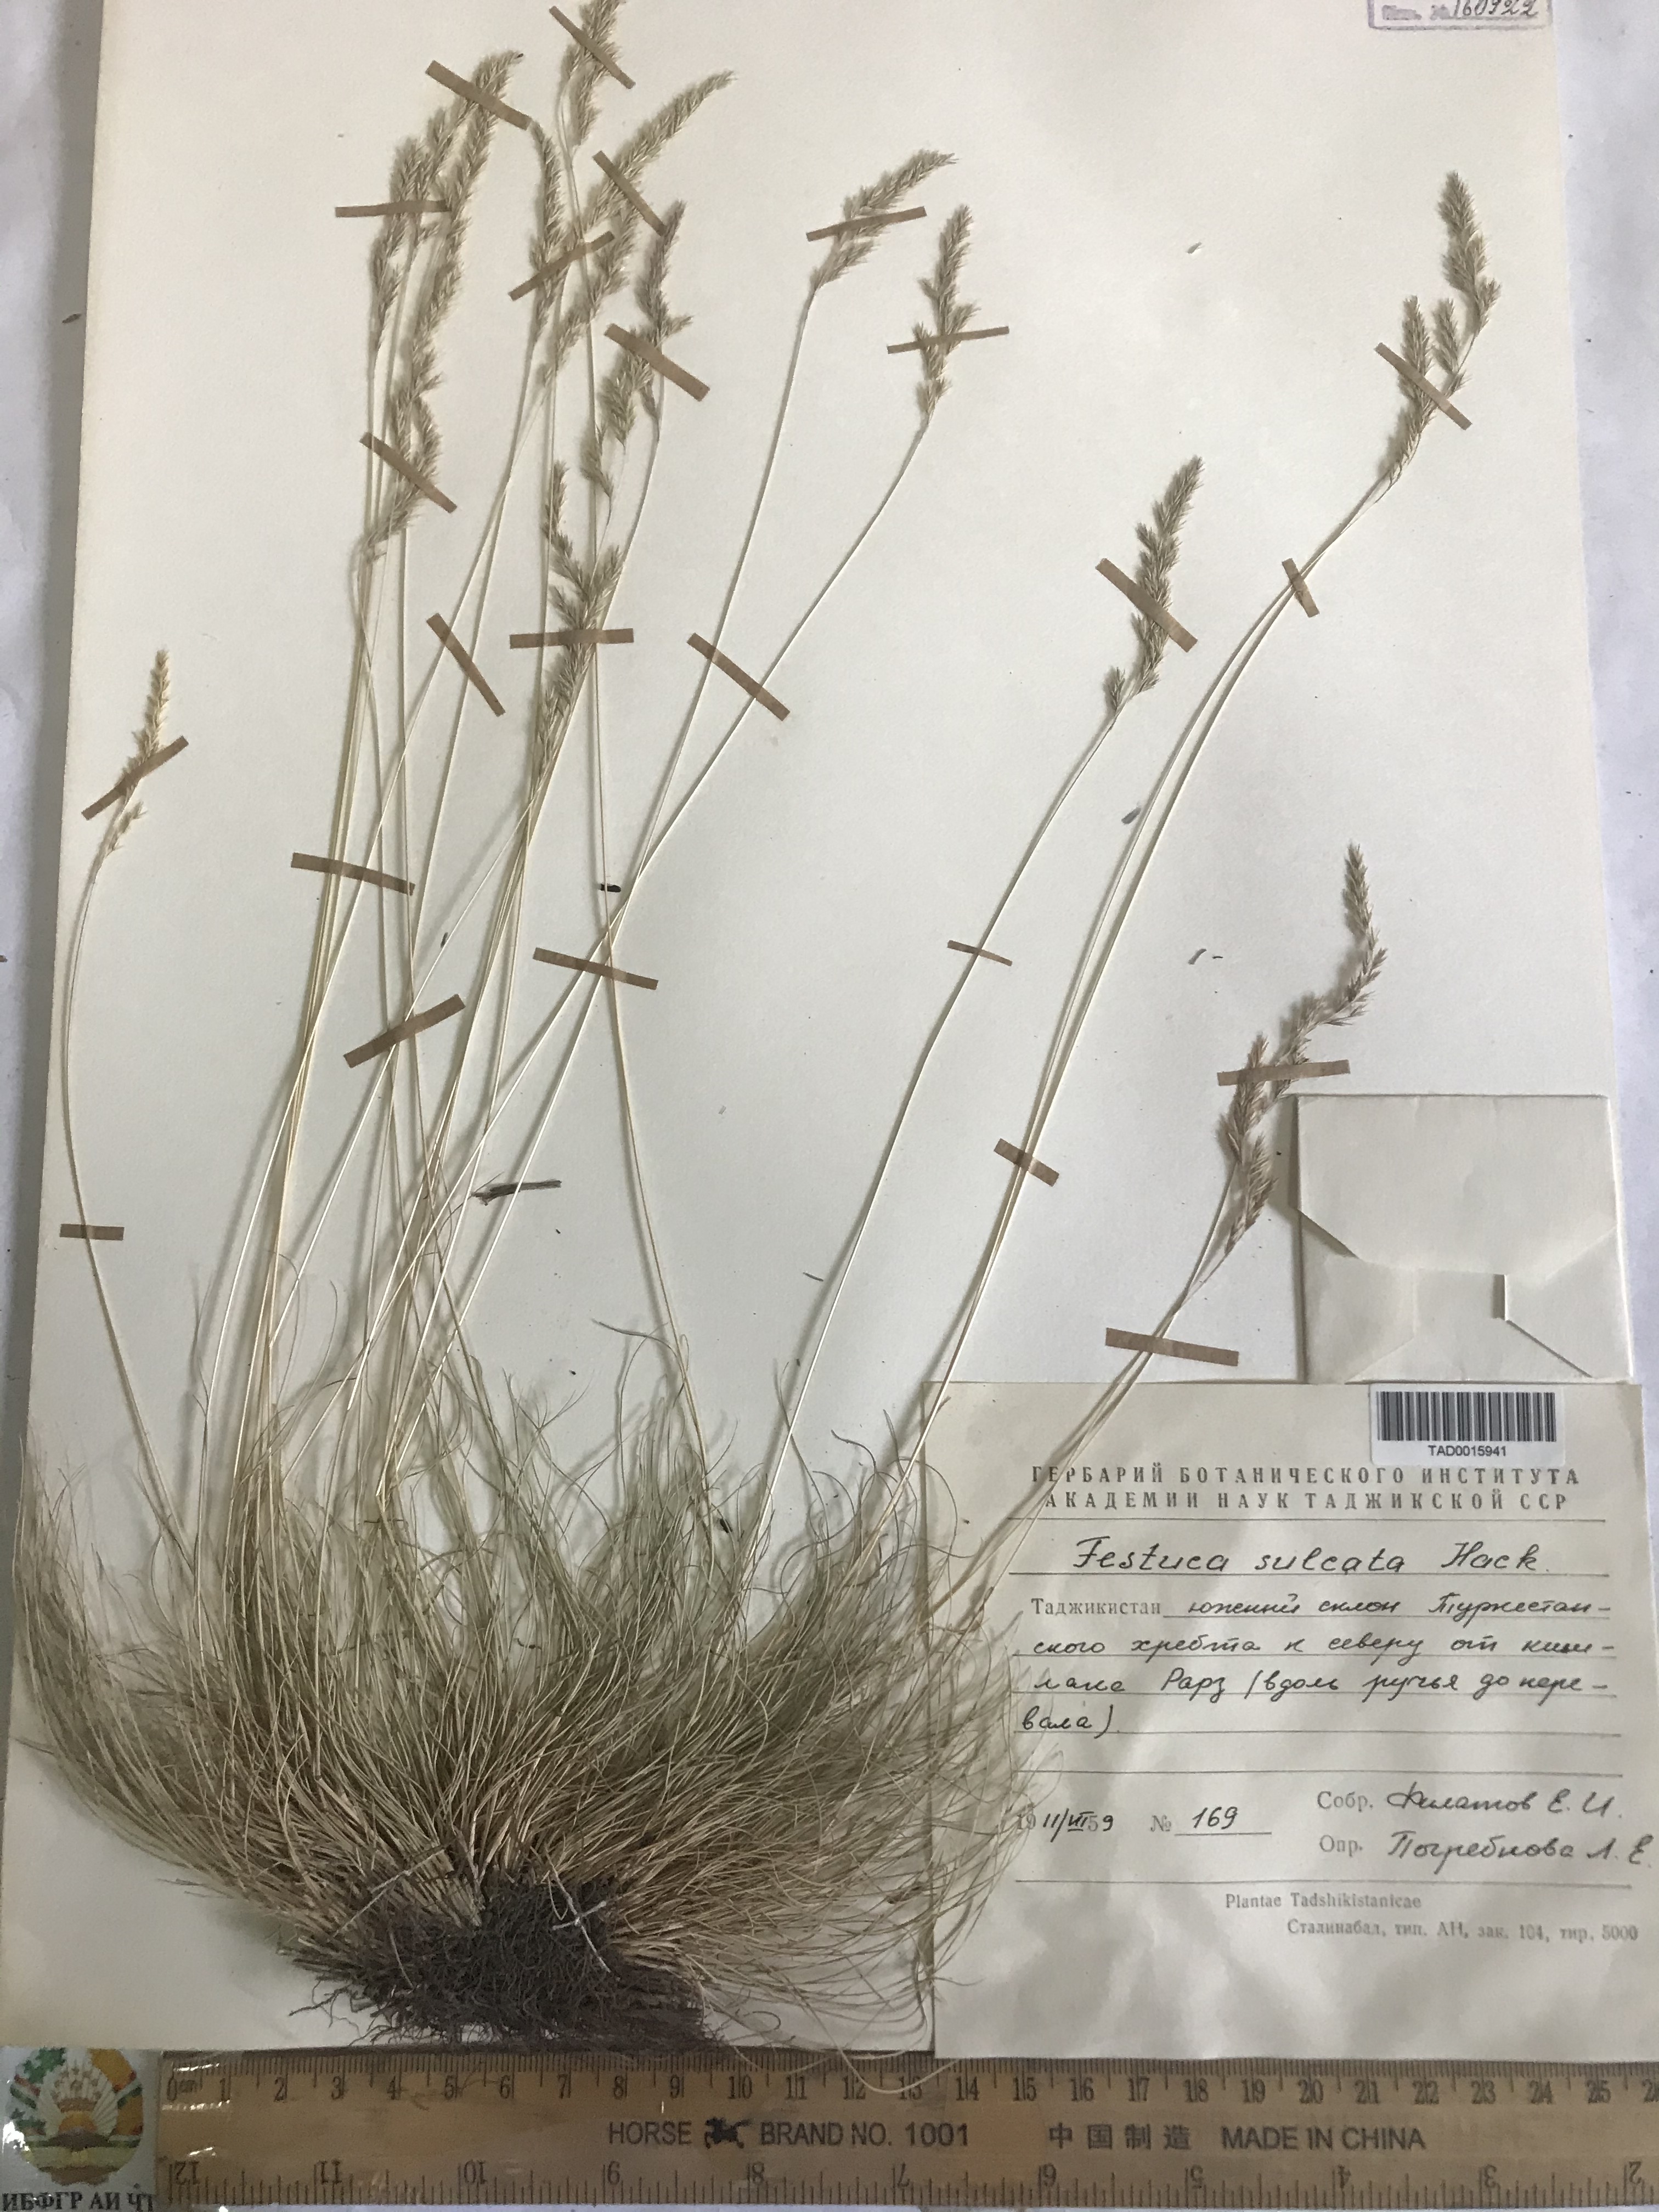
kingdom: Plantae
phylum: Tracheophyta
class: Liliopsida
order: Poales
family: Poaceae
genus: Festuca
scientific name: Festuca sulcata
